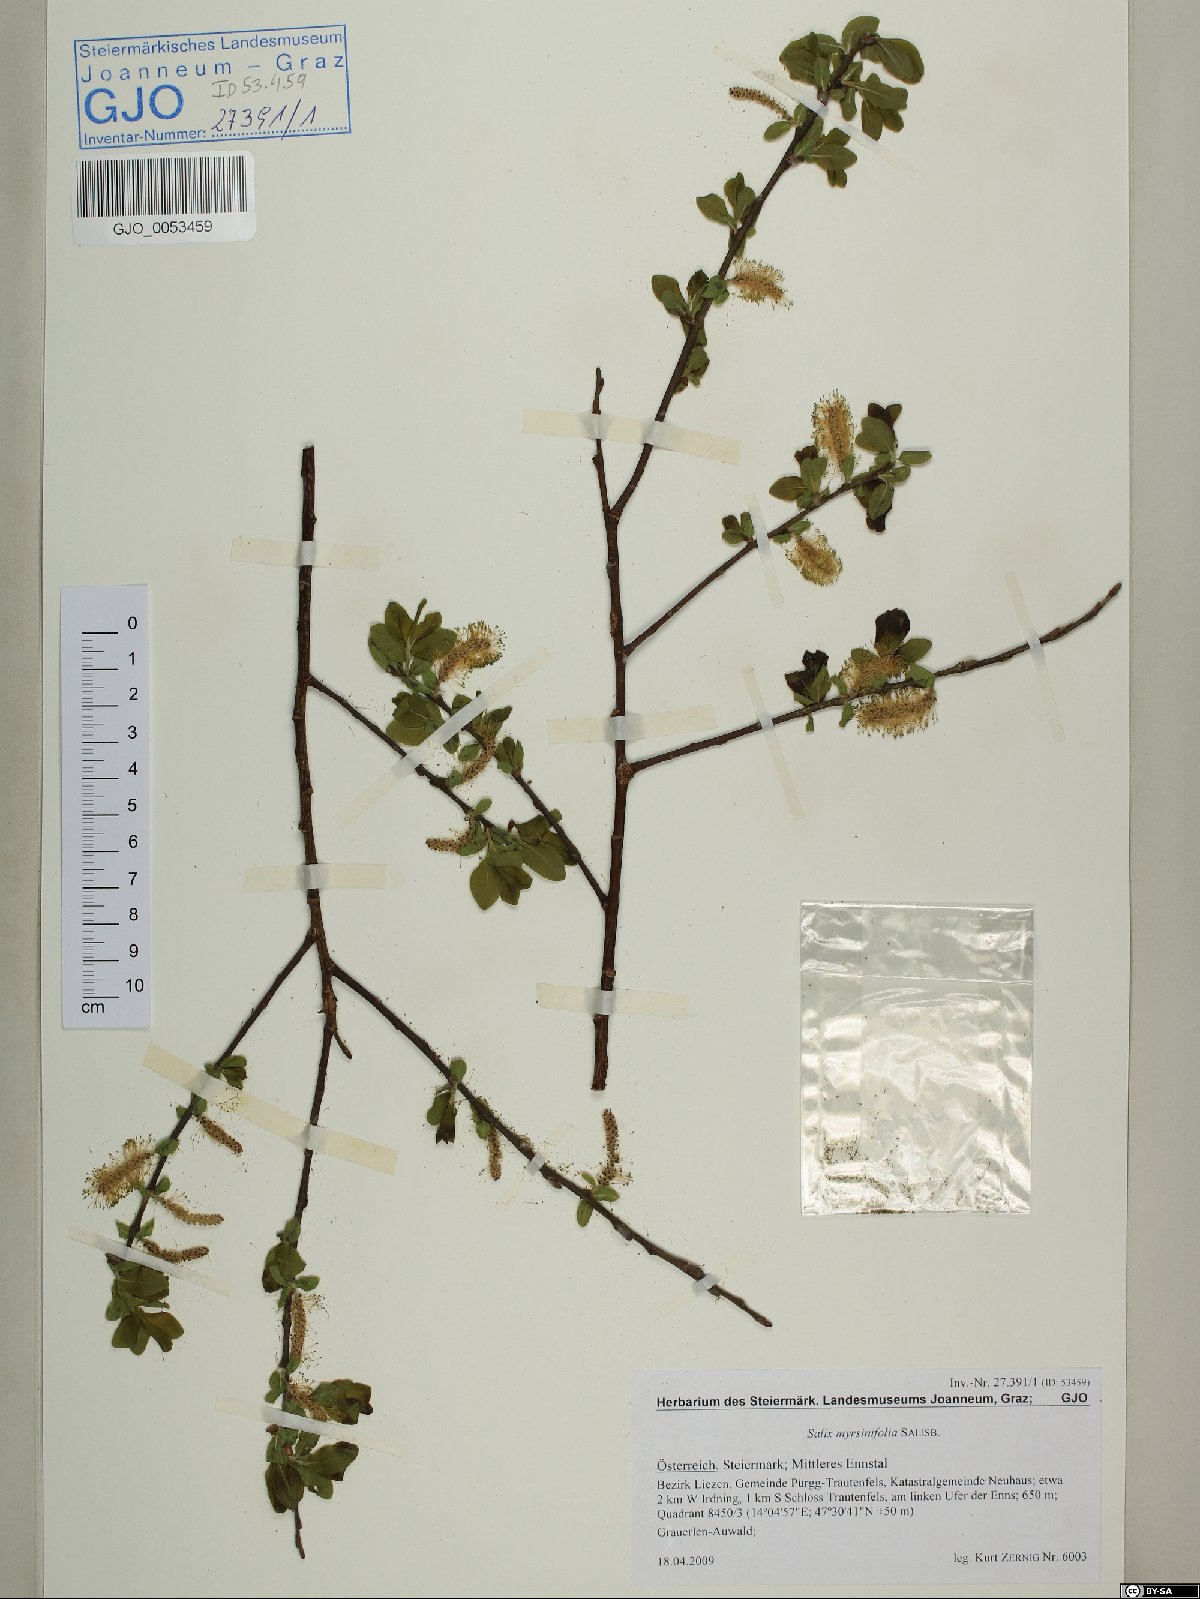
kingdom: Plantae
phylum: Tracheophyta
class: Magnoliopsida
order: Malpighiales
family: Salicaceae
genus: Salix
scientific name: Salix myrsinifolia
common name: Dark-leaved willow
